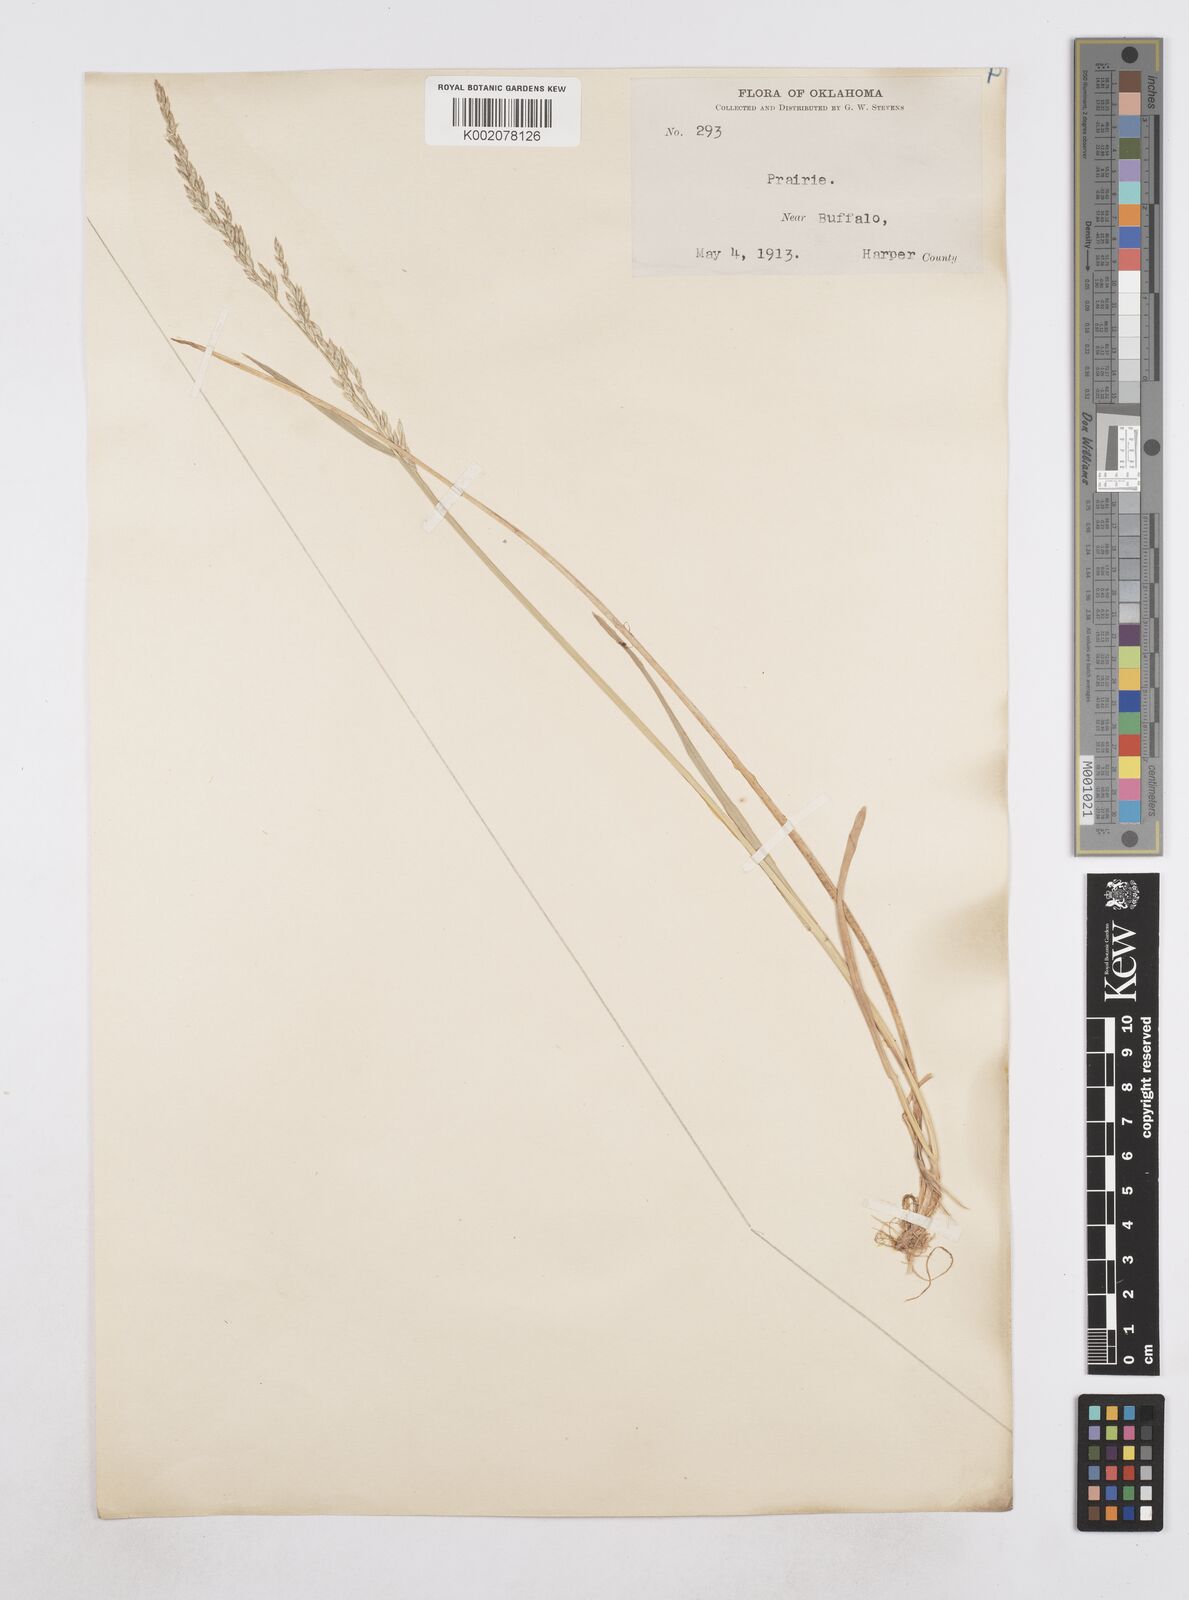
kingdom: Plantae
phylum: Tracheophyta
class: Liliopsida
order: Poales
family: Poaceae
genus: Poa
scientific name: Poa
